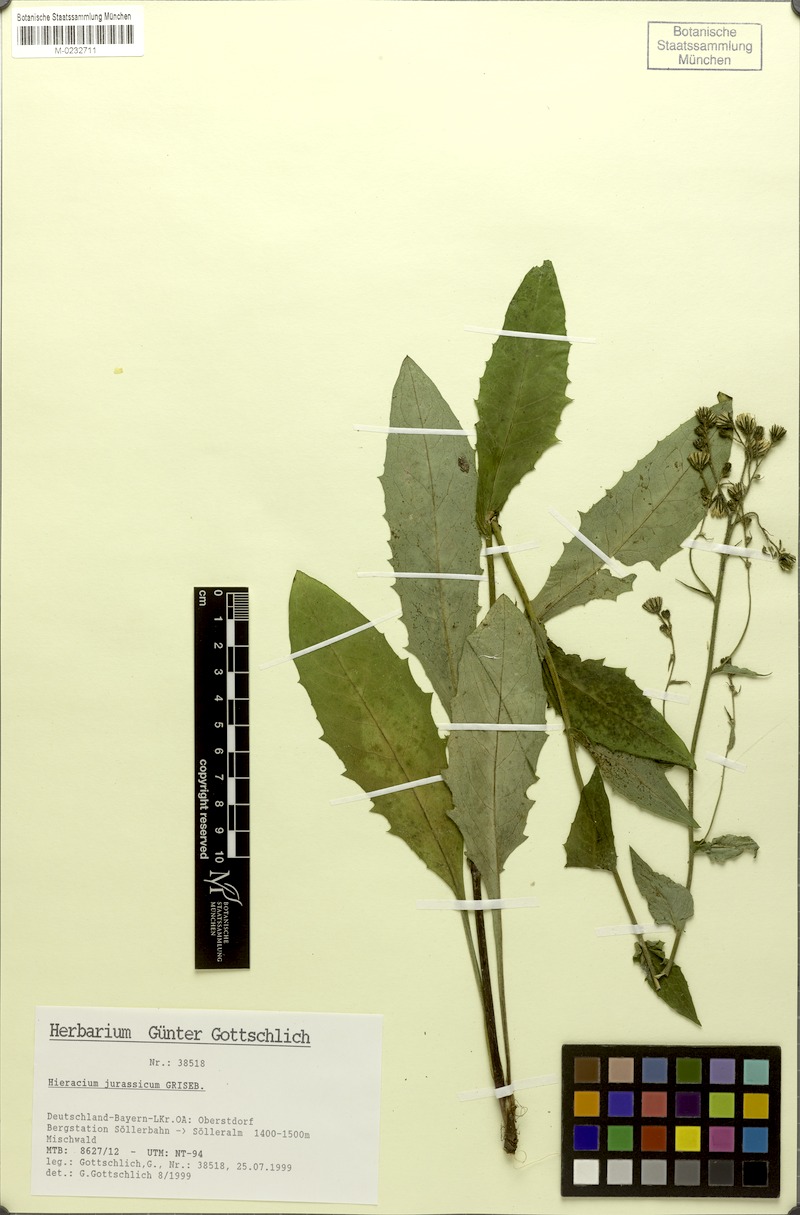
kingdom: Plantae
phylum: Tracheophyta
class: Magnoliopsida
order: Asterales
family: Asteraceae
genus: Hieracium
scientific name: Hieracium jurassicum
